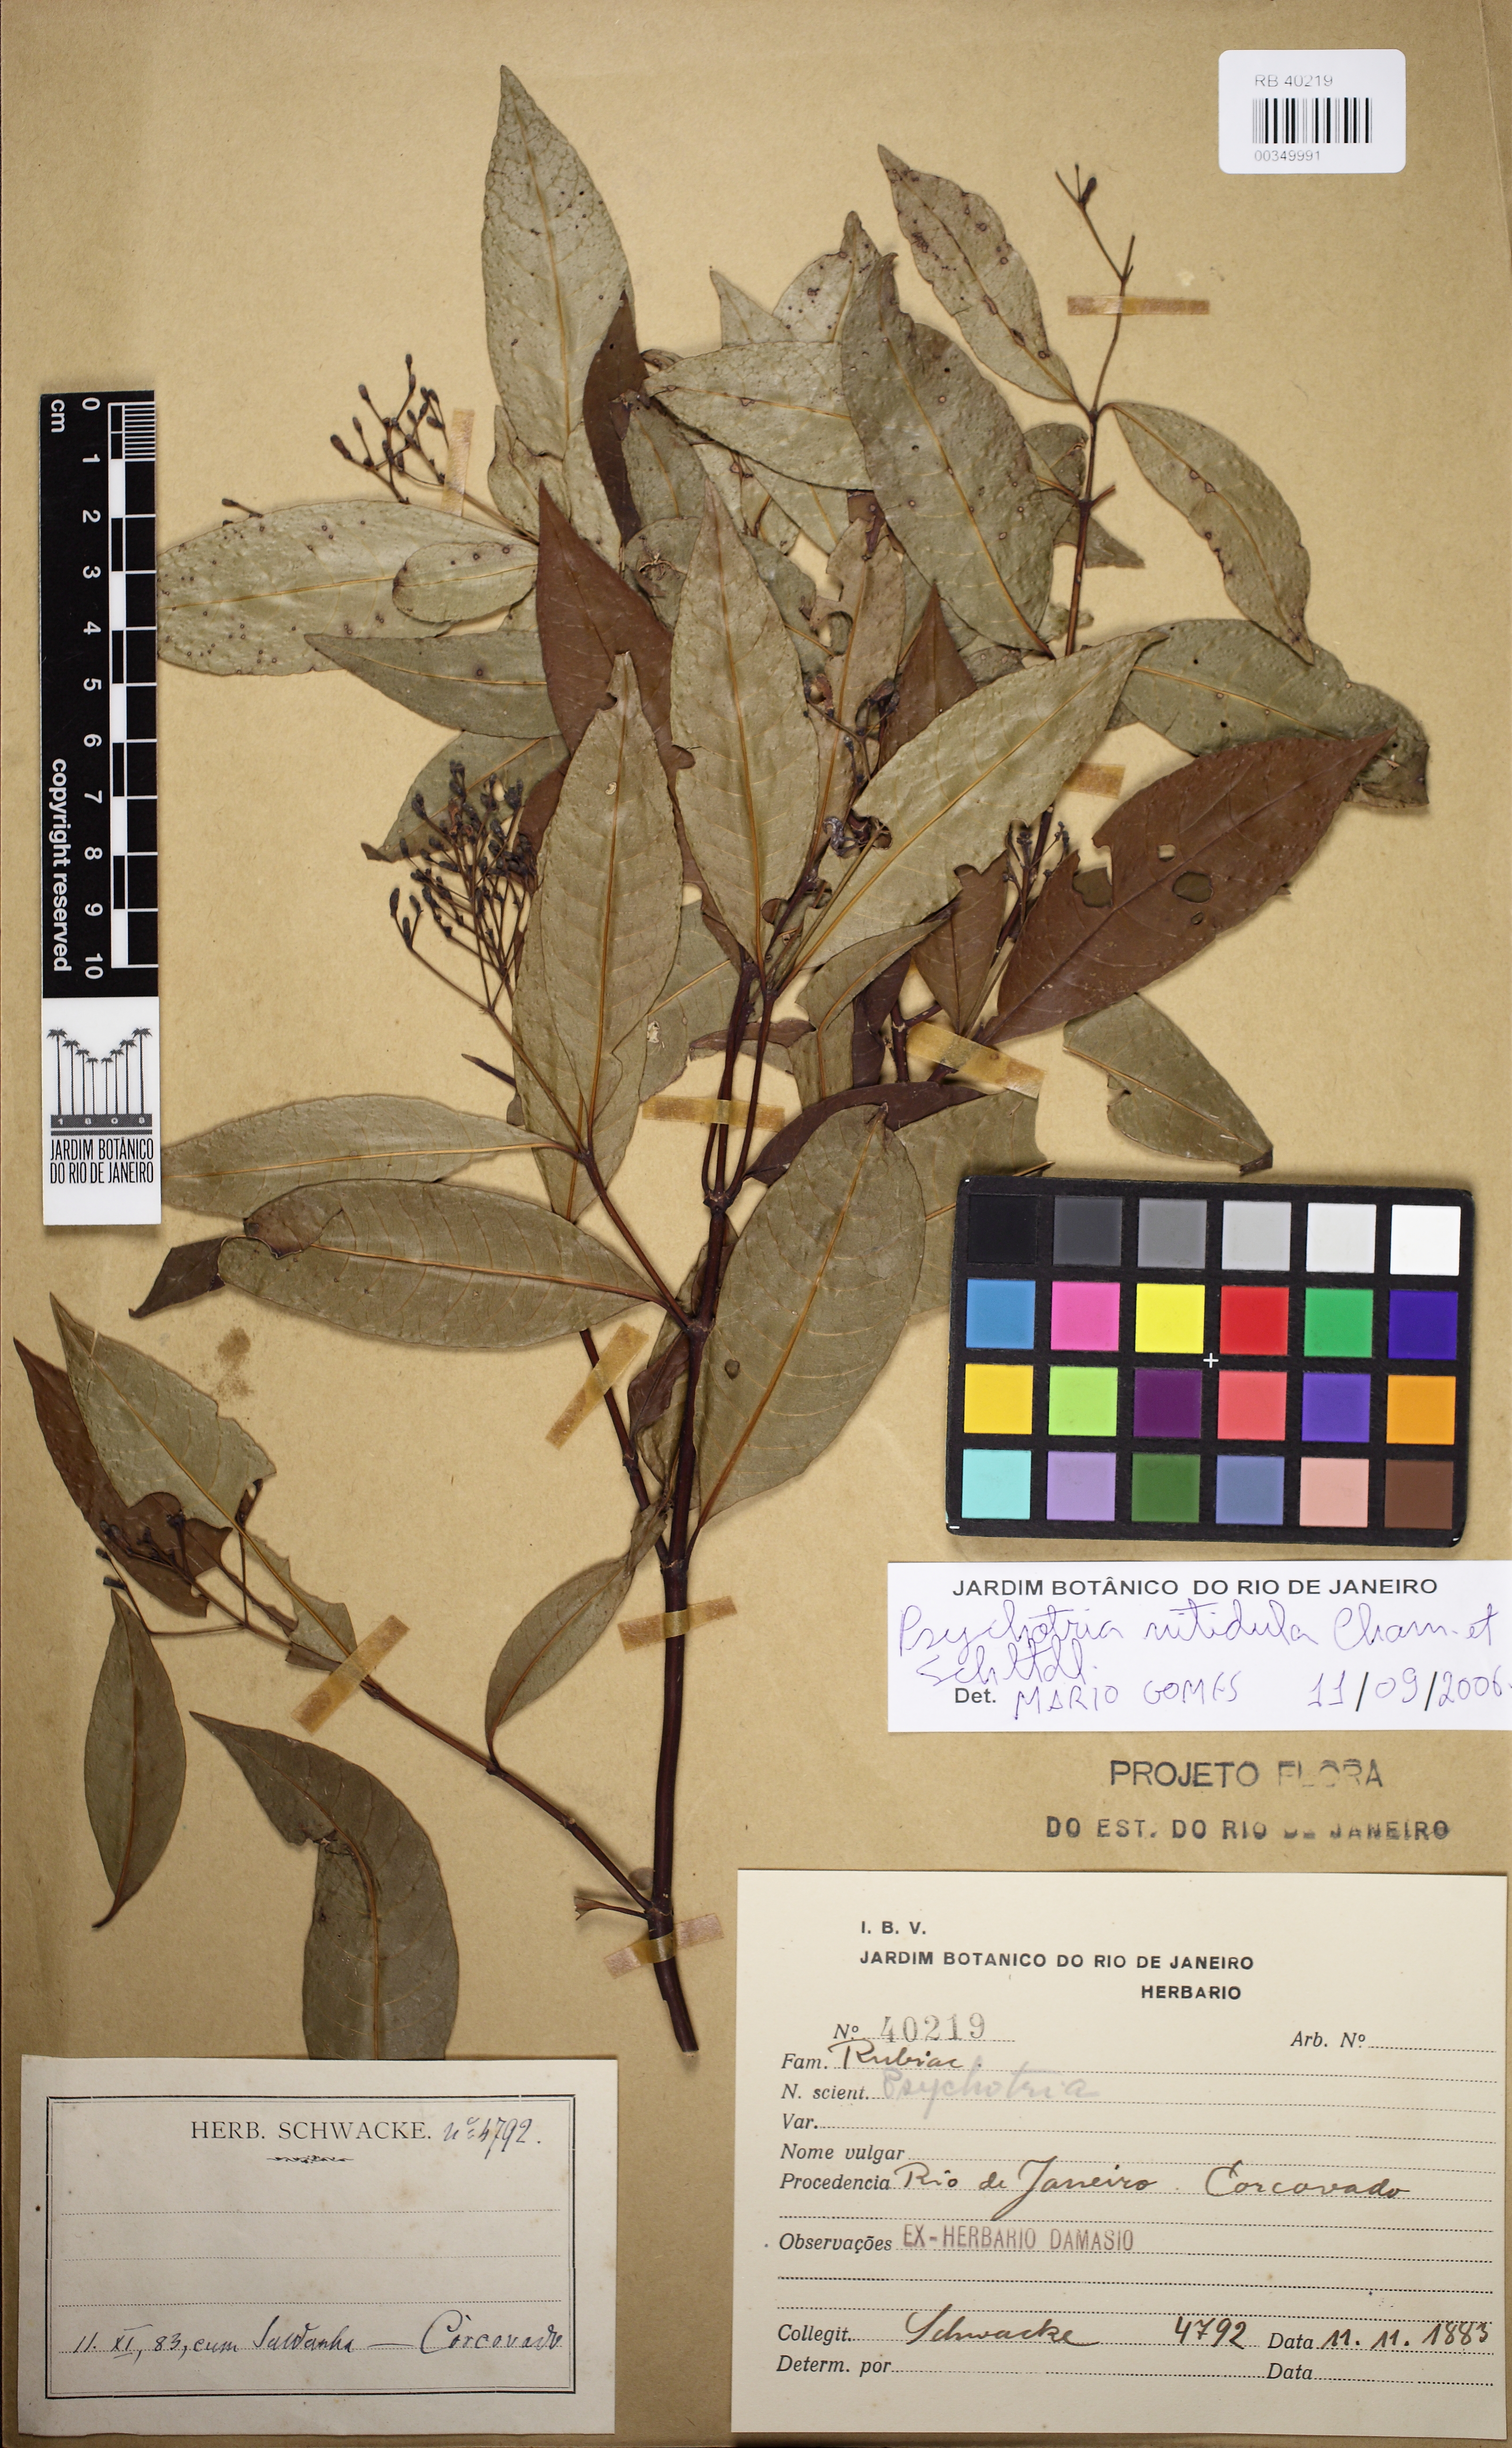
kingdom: Plantae
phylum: Tracheophyta
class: Magnoliopsida
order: Gentianales
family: Rubiaceae
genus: Psychotria
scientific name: Psychotria leiocarpa
